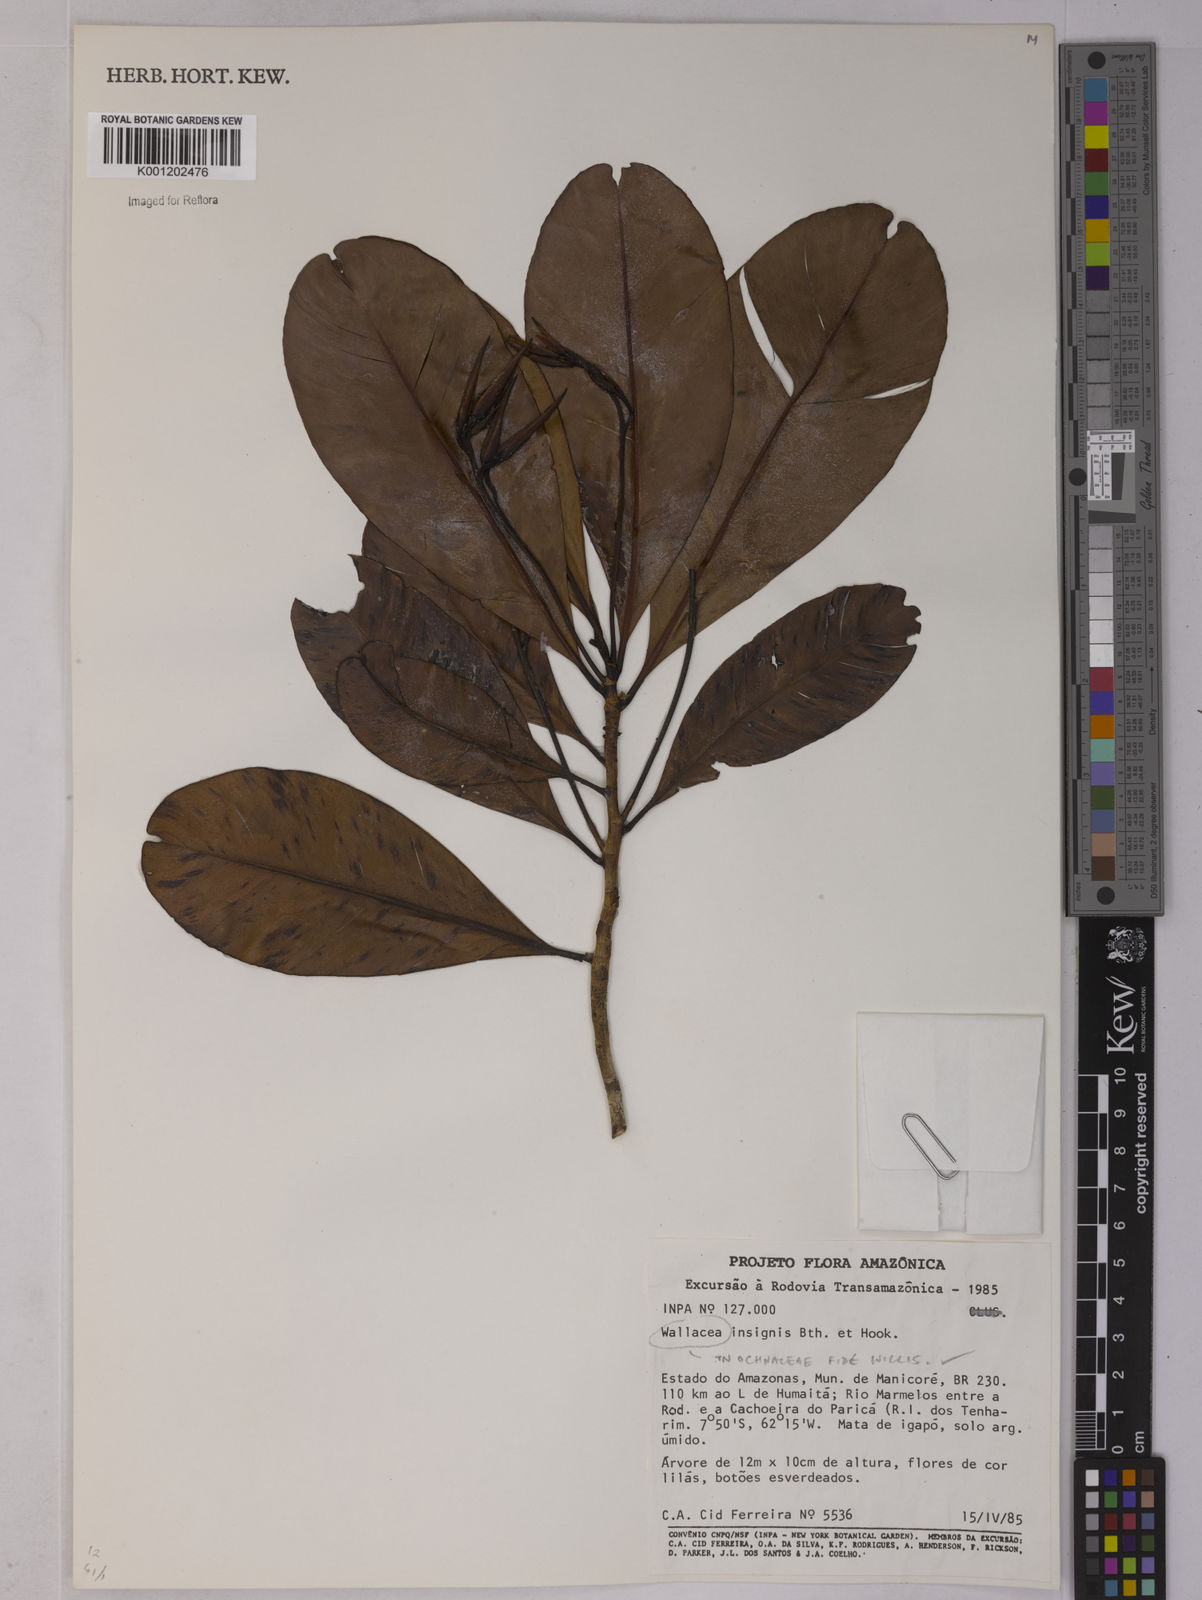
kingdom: Plantae
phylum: Tracheophyta
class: Magnoliopsida
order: Malpighiales
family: Ochnaceae
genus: Wallacea
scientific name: Wallacea insignis
